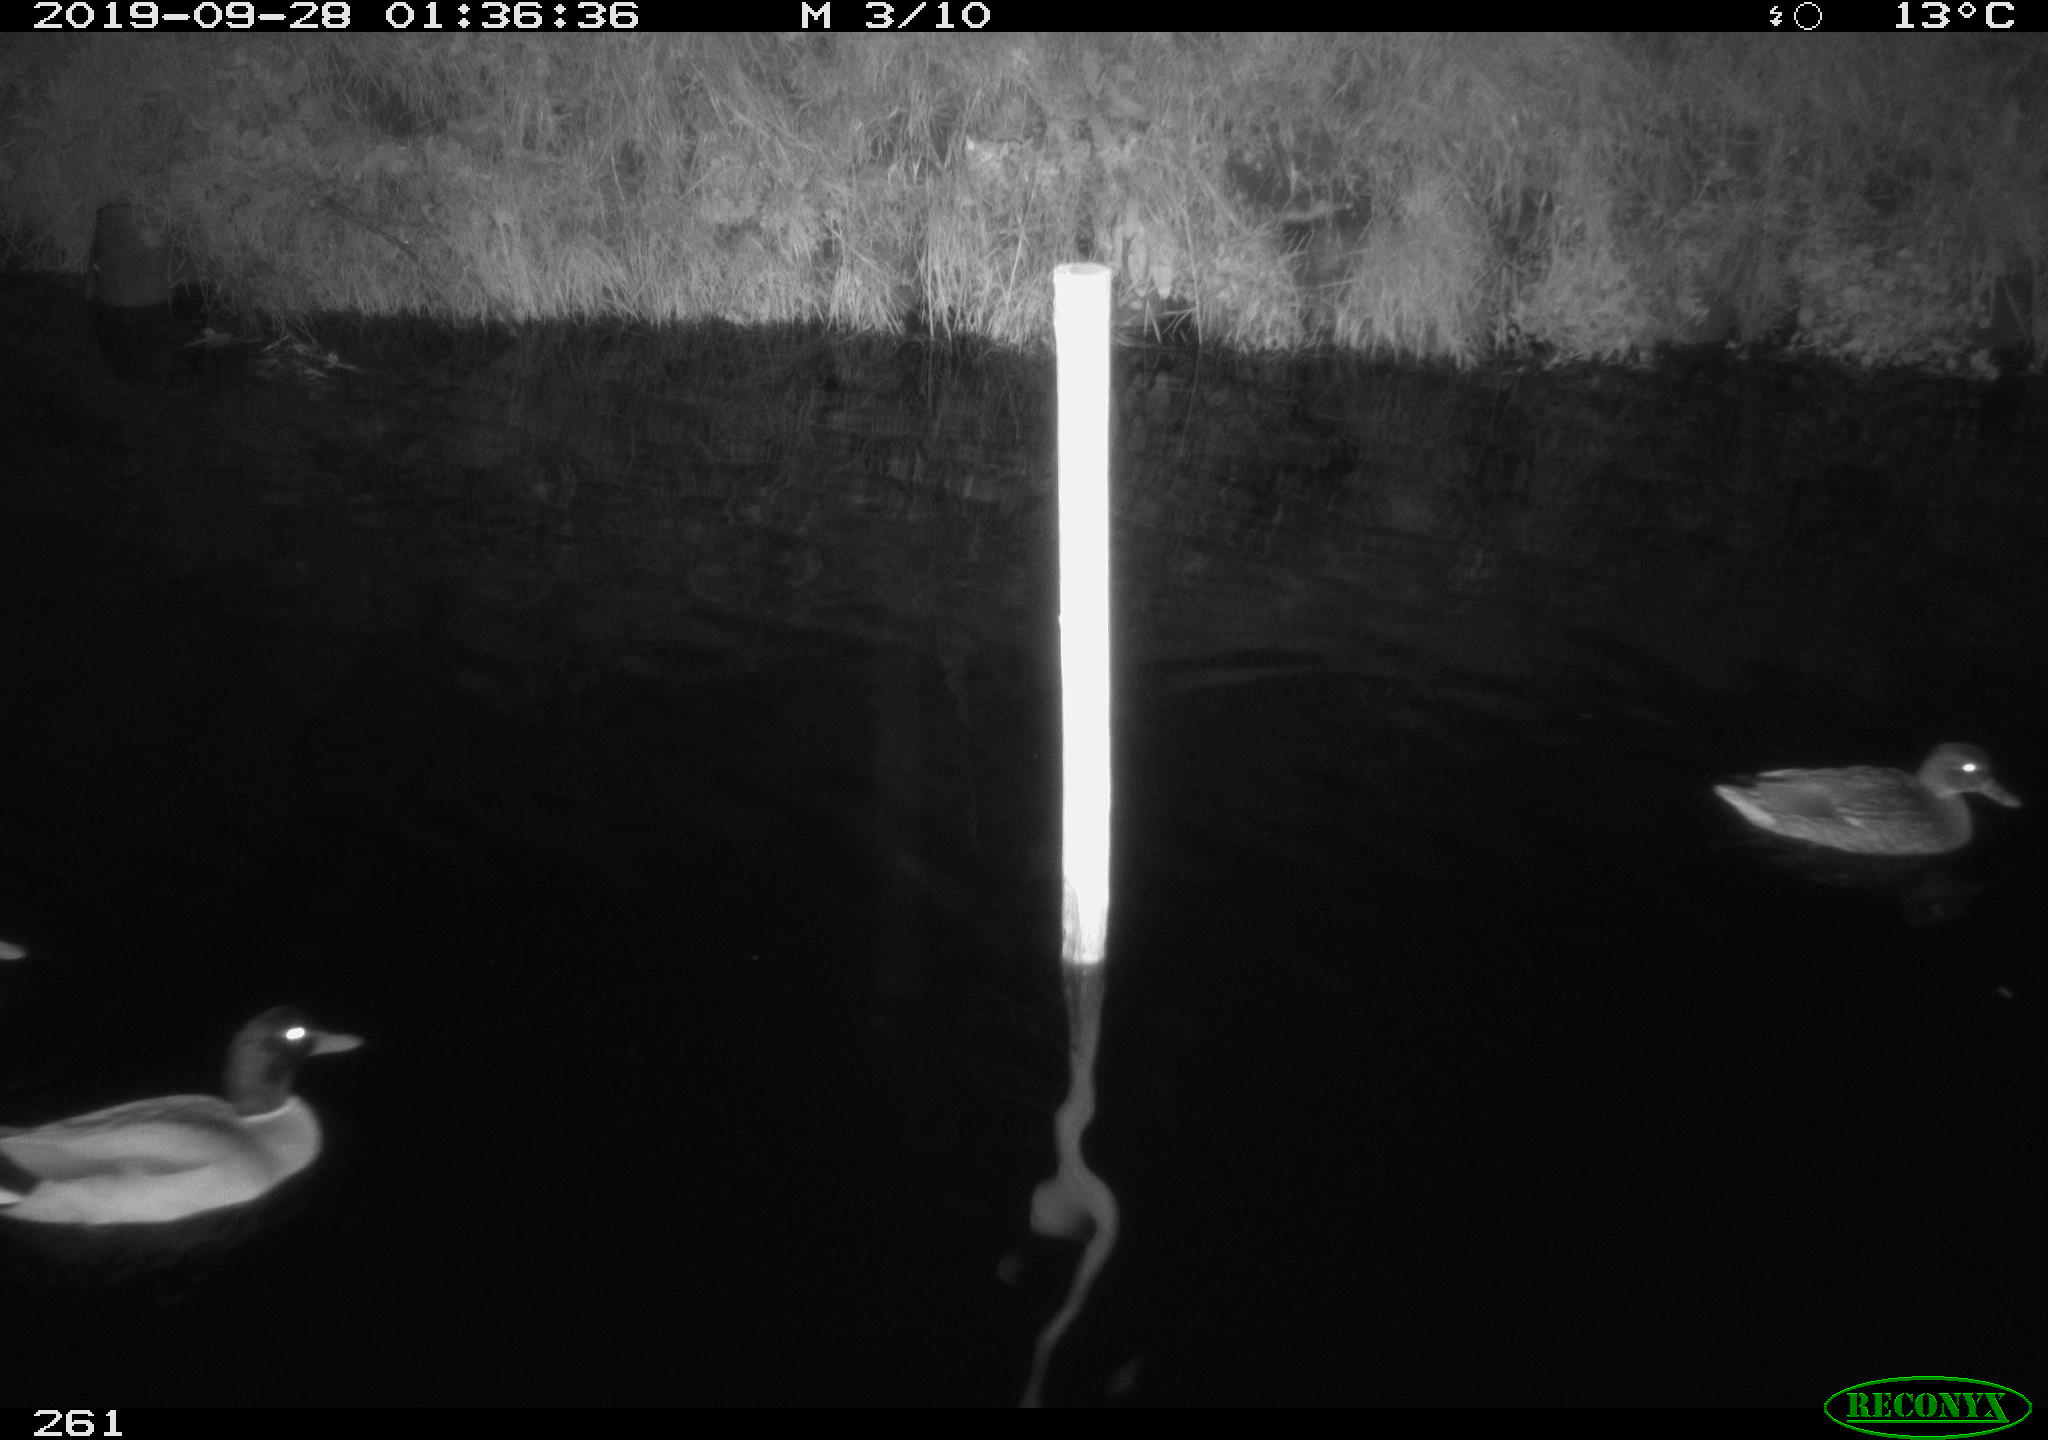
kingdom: Animalia
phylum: Chordata
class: Aves
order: Anseriformes
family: Anatidae
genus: Anas
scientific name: Anas platyrhynchos
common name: Mallard
